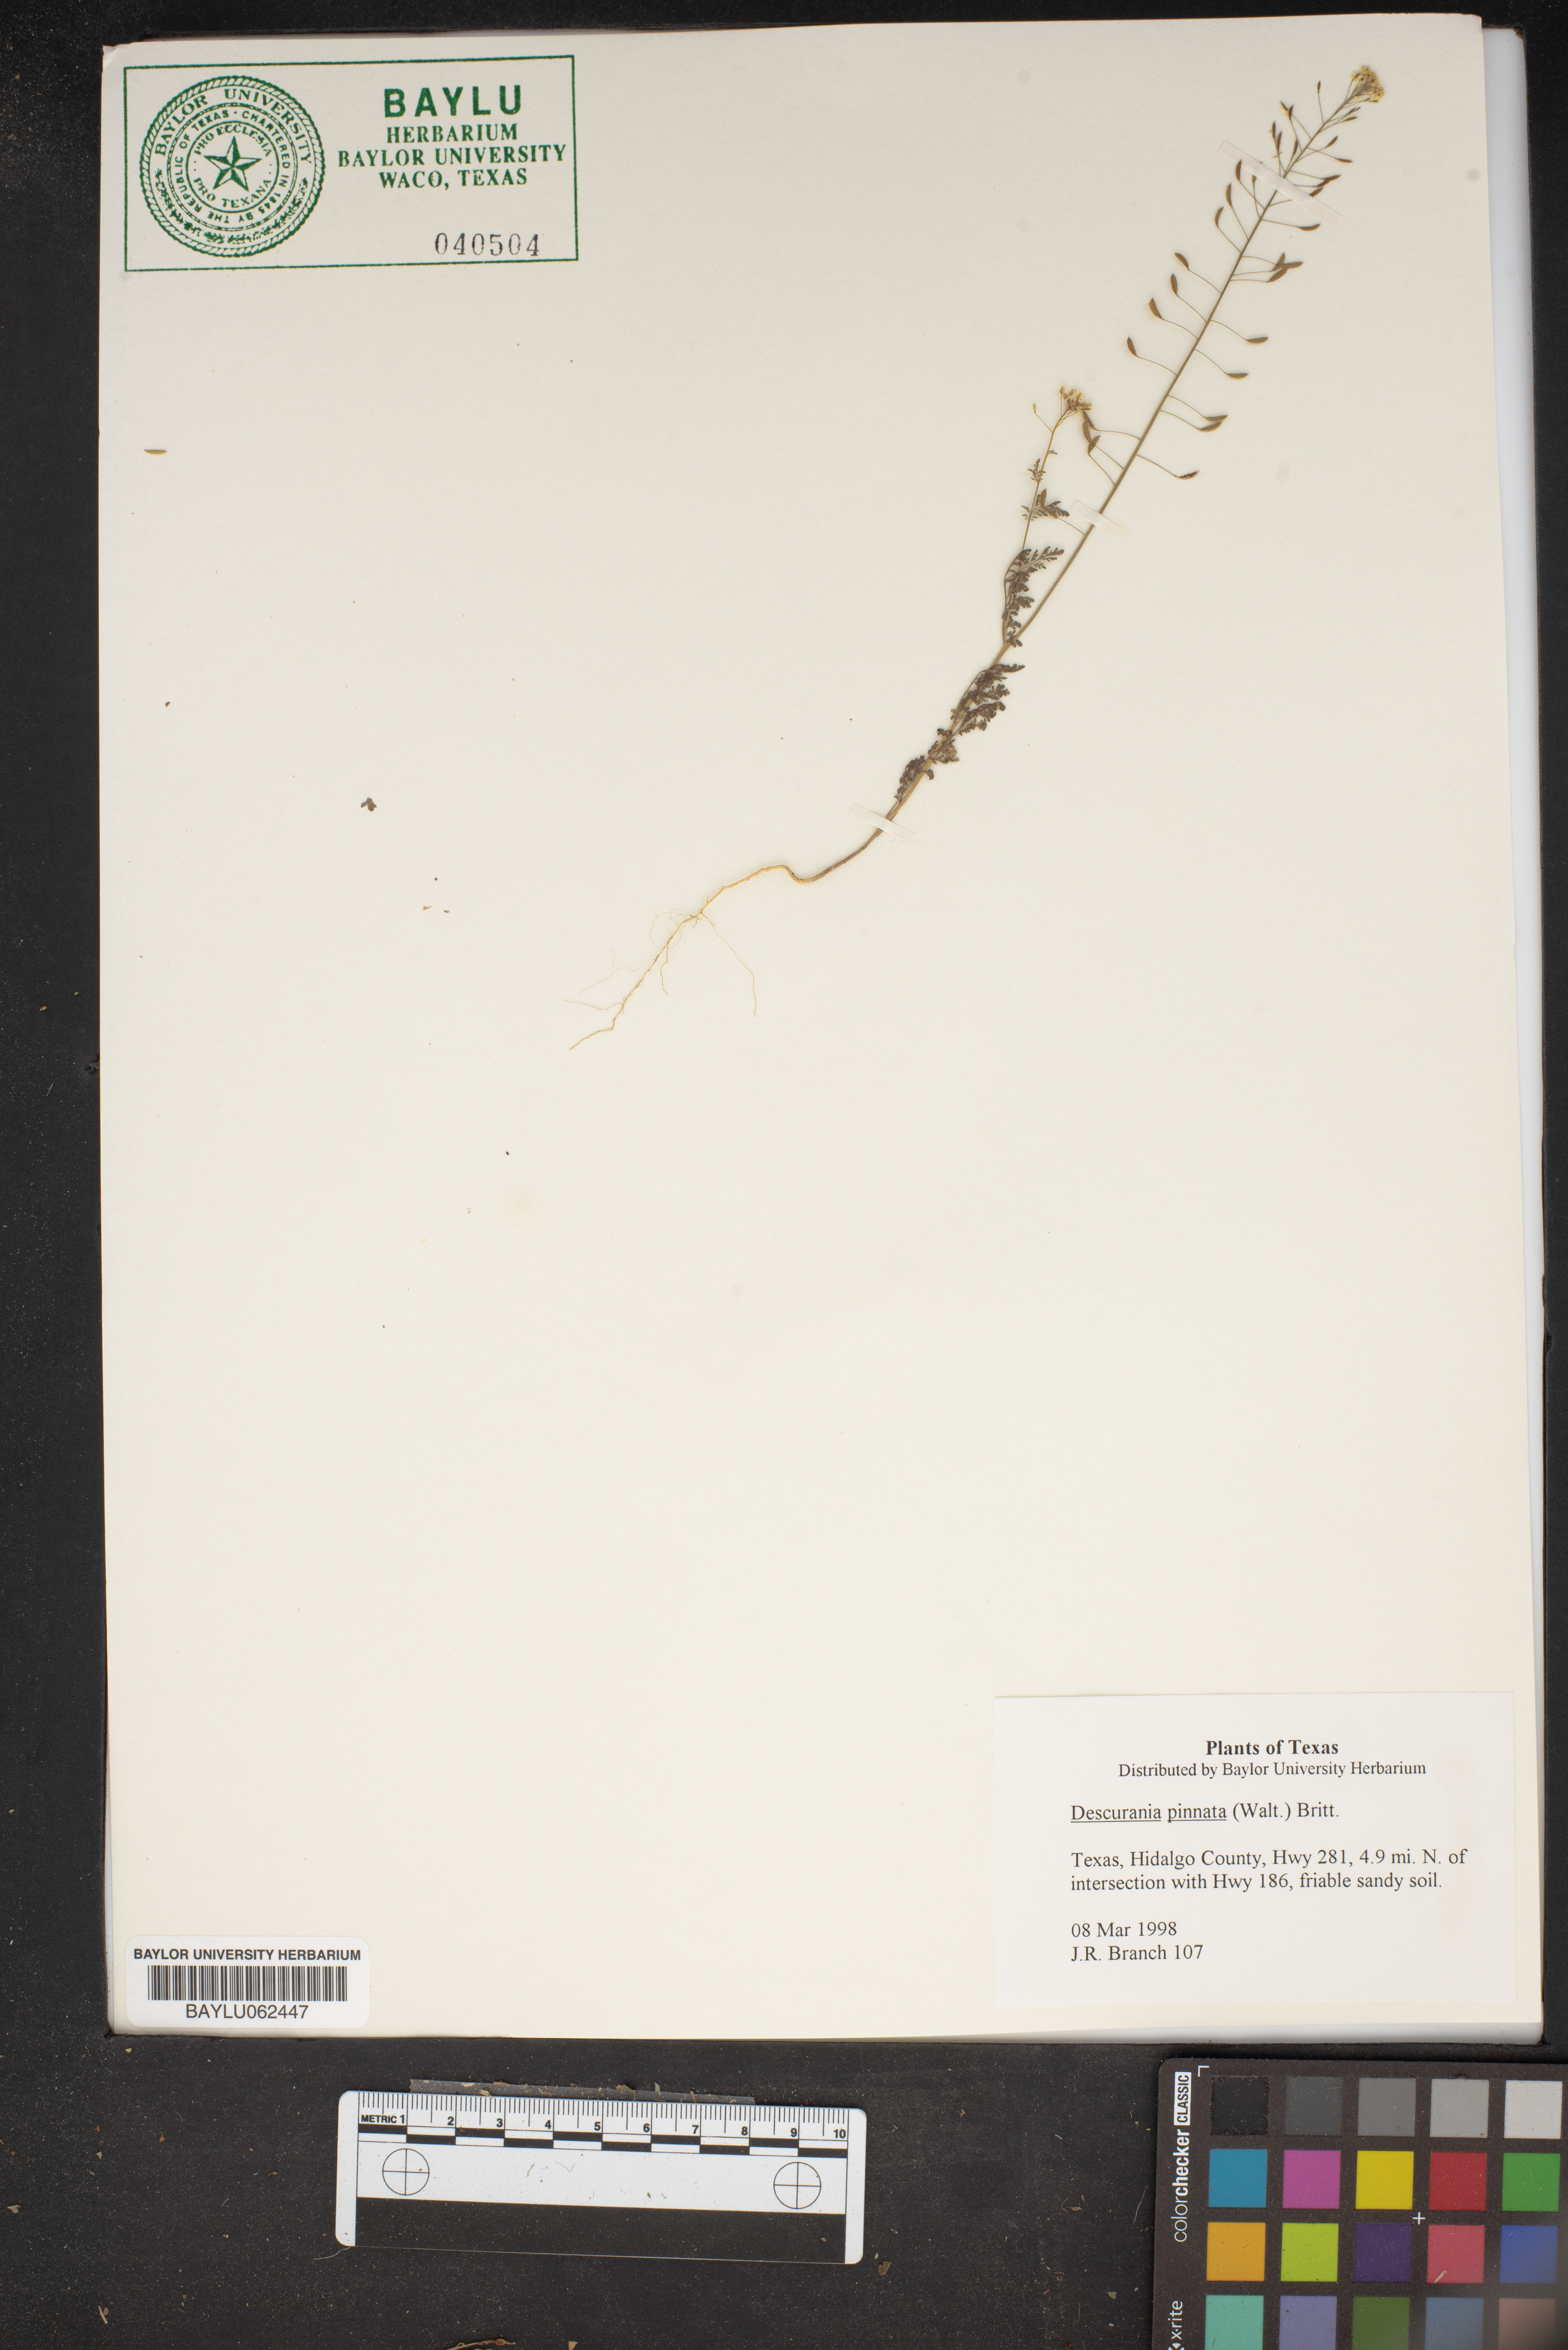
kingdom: Plantae
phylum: Tracheophyta
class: Magnoliopsida
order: Brassicales
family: Brassicaceae
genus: Descurainia
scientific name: Descurainia pinnata
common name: Western tansy mustard
